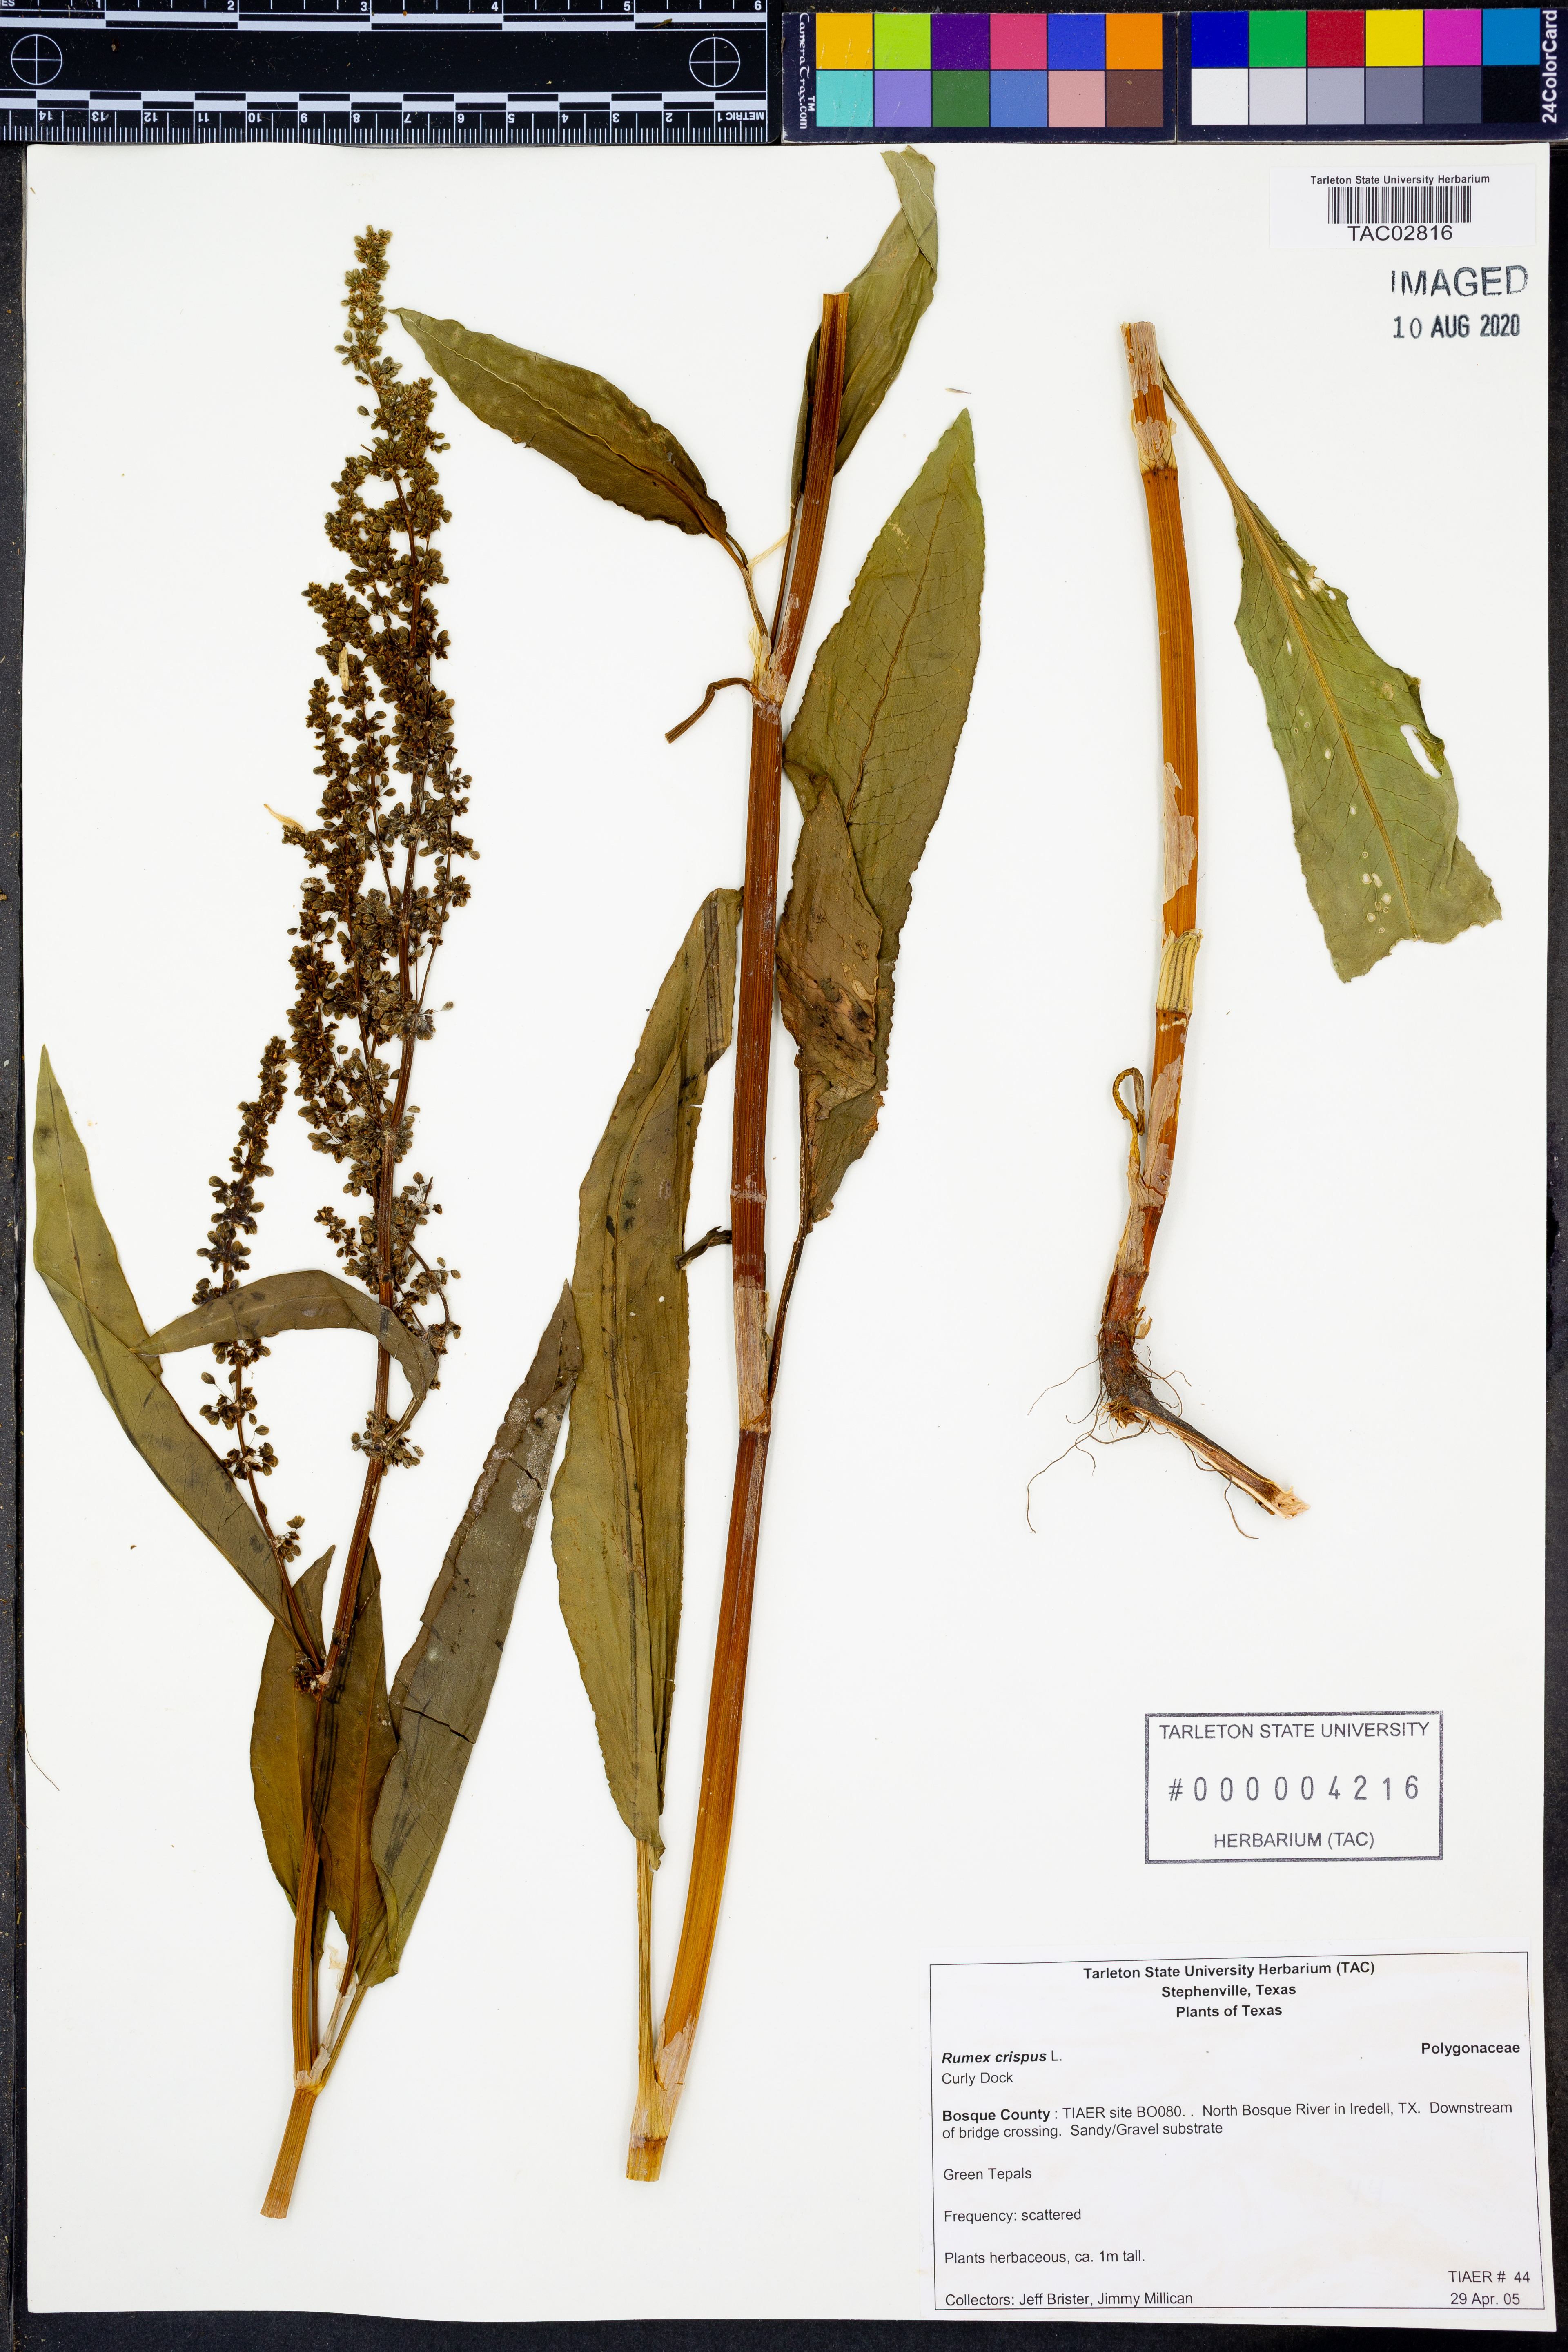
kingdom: Plantae
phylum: Tracheophyta
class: Magnoliopsida
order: Caryophyllales
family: Polygonaceae
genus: Rumex
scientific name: Rumex crispus
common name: Curled dock
